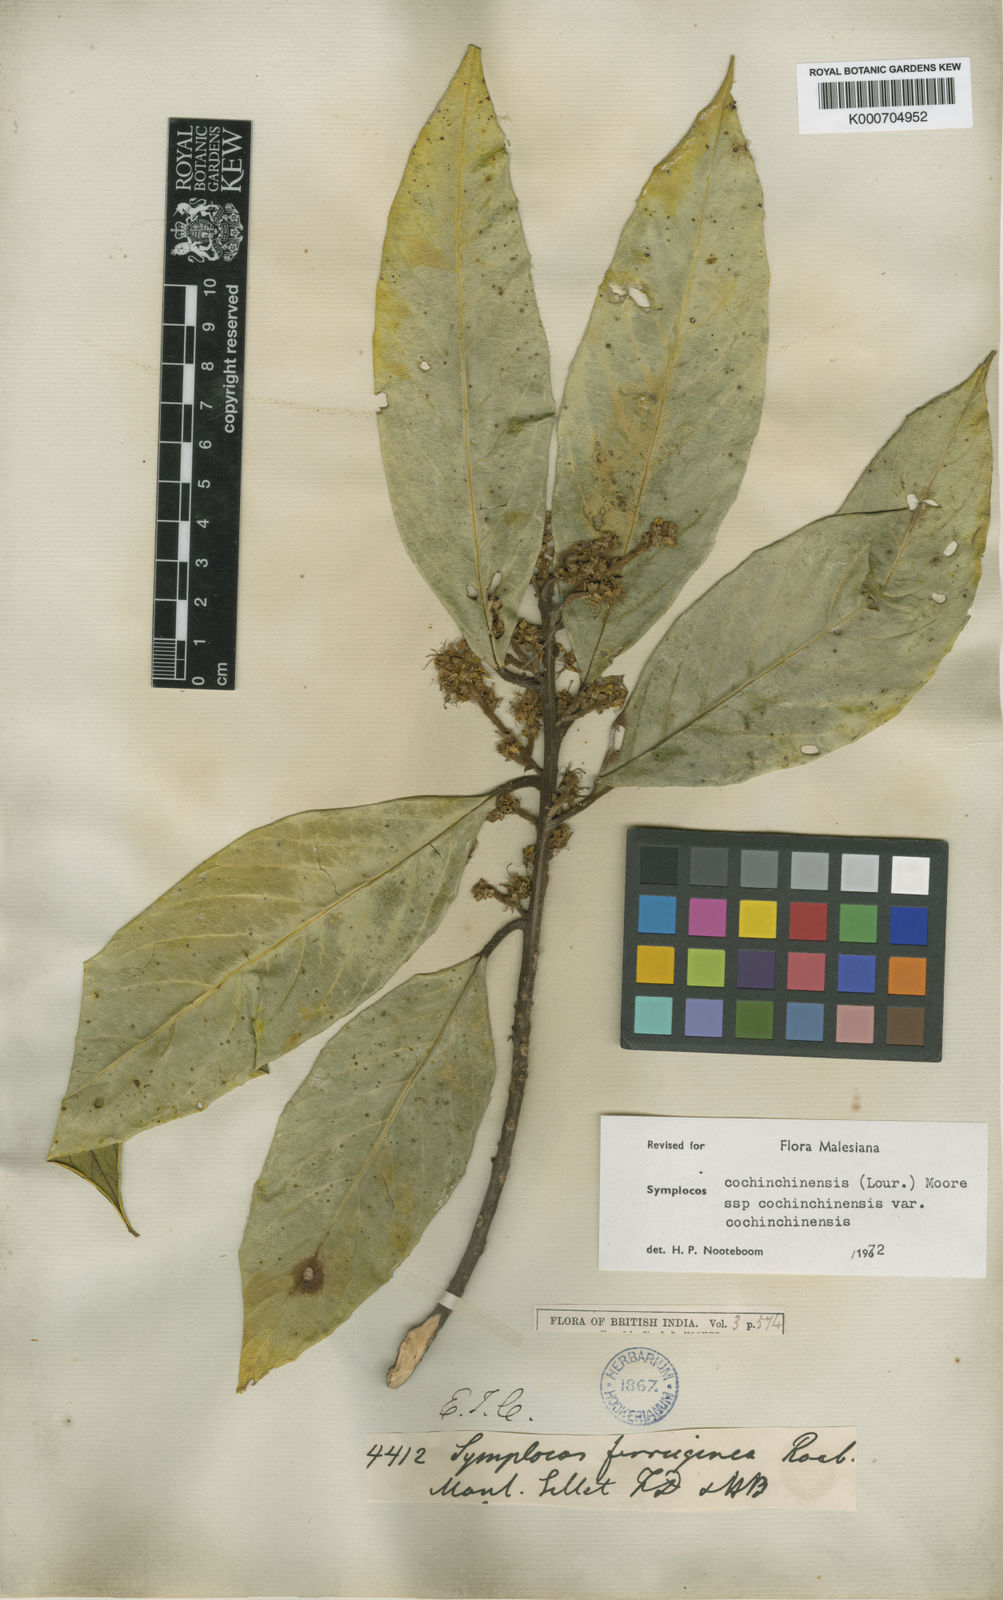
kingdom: Plantae
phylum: Tracheophyta
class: Magnoliopsida
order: Ericales
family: Symplocaceae
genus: Symplocos
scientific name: Symplocos cochinchinensis
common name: Buff hazelwood
